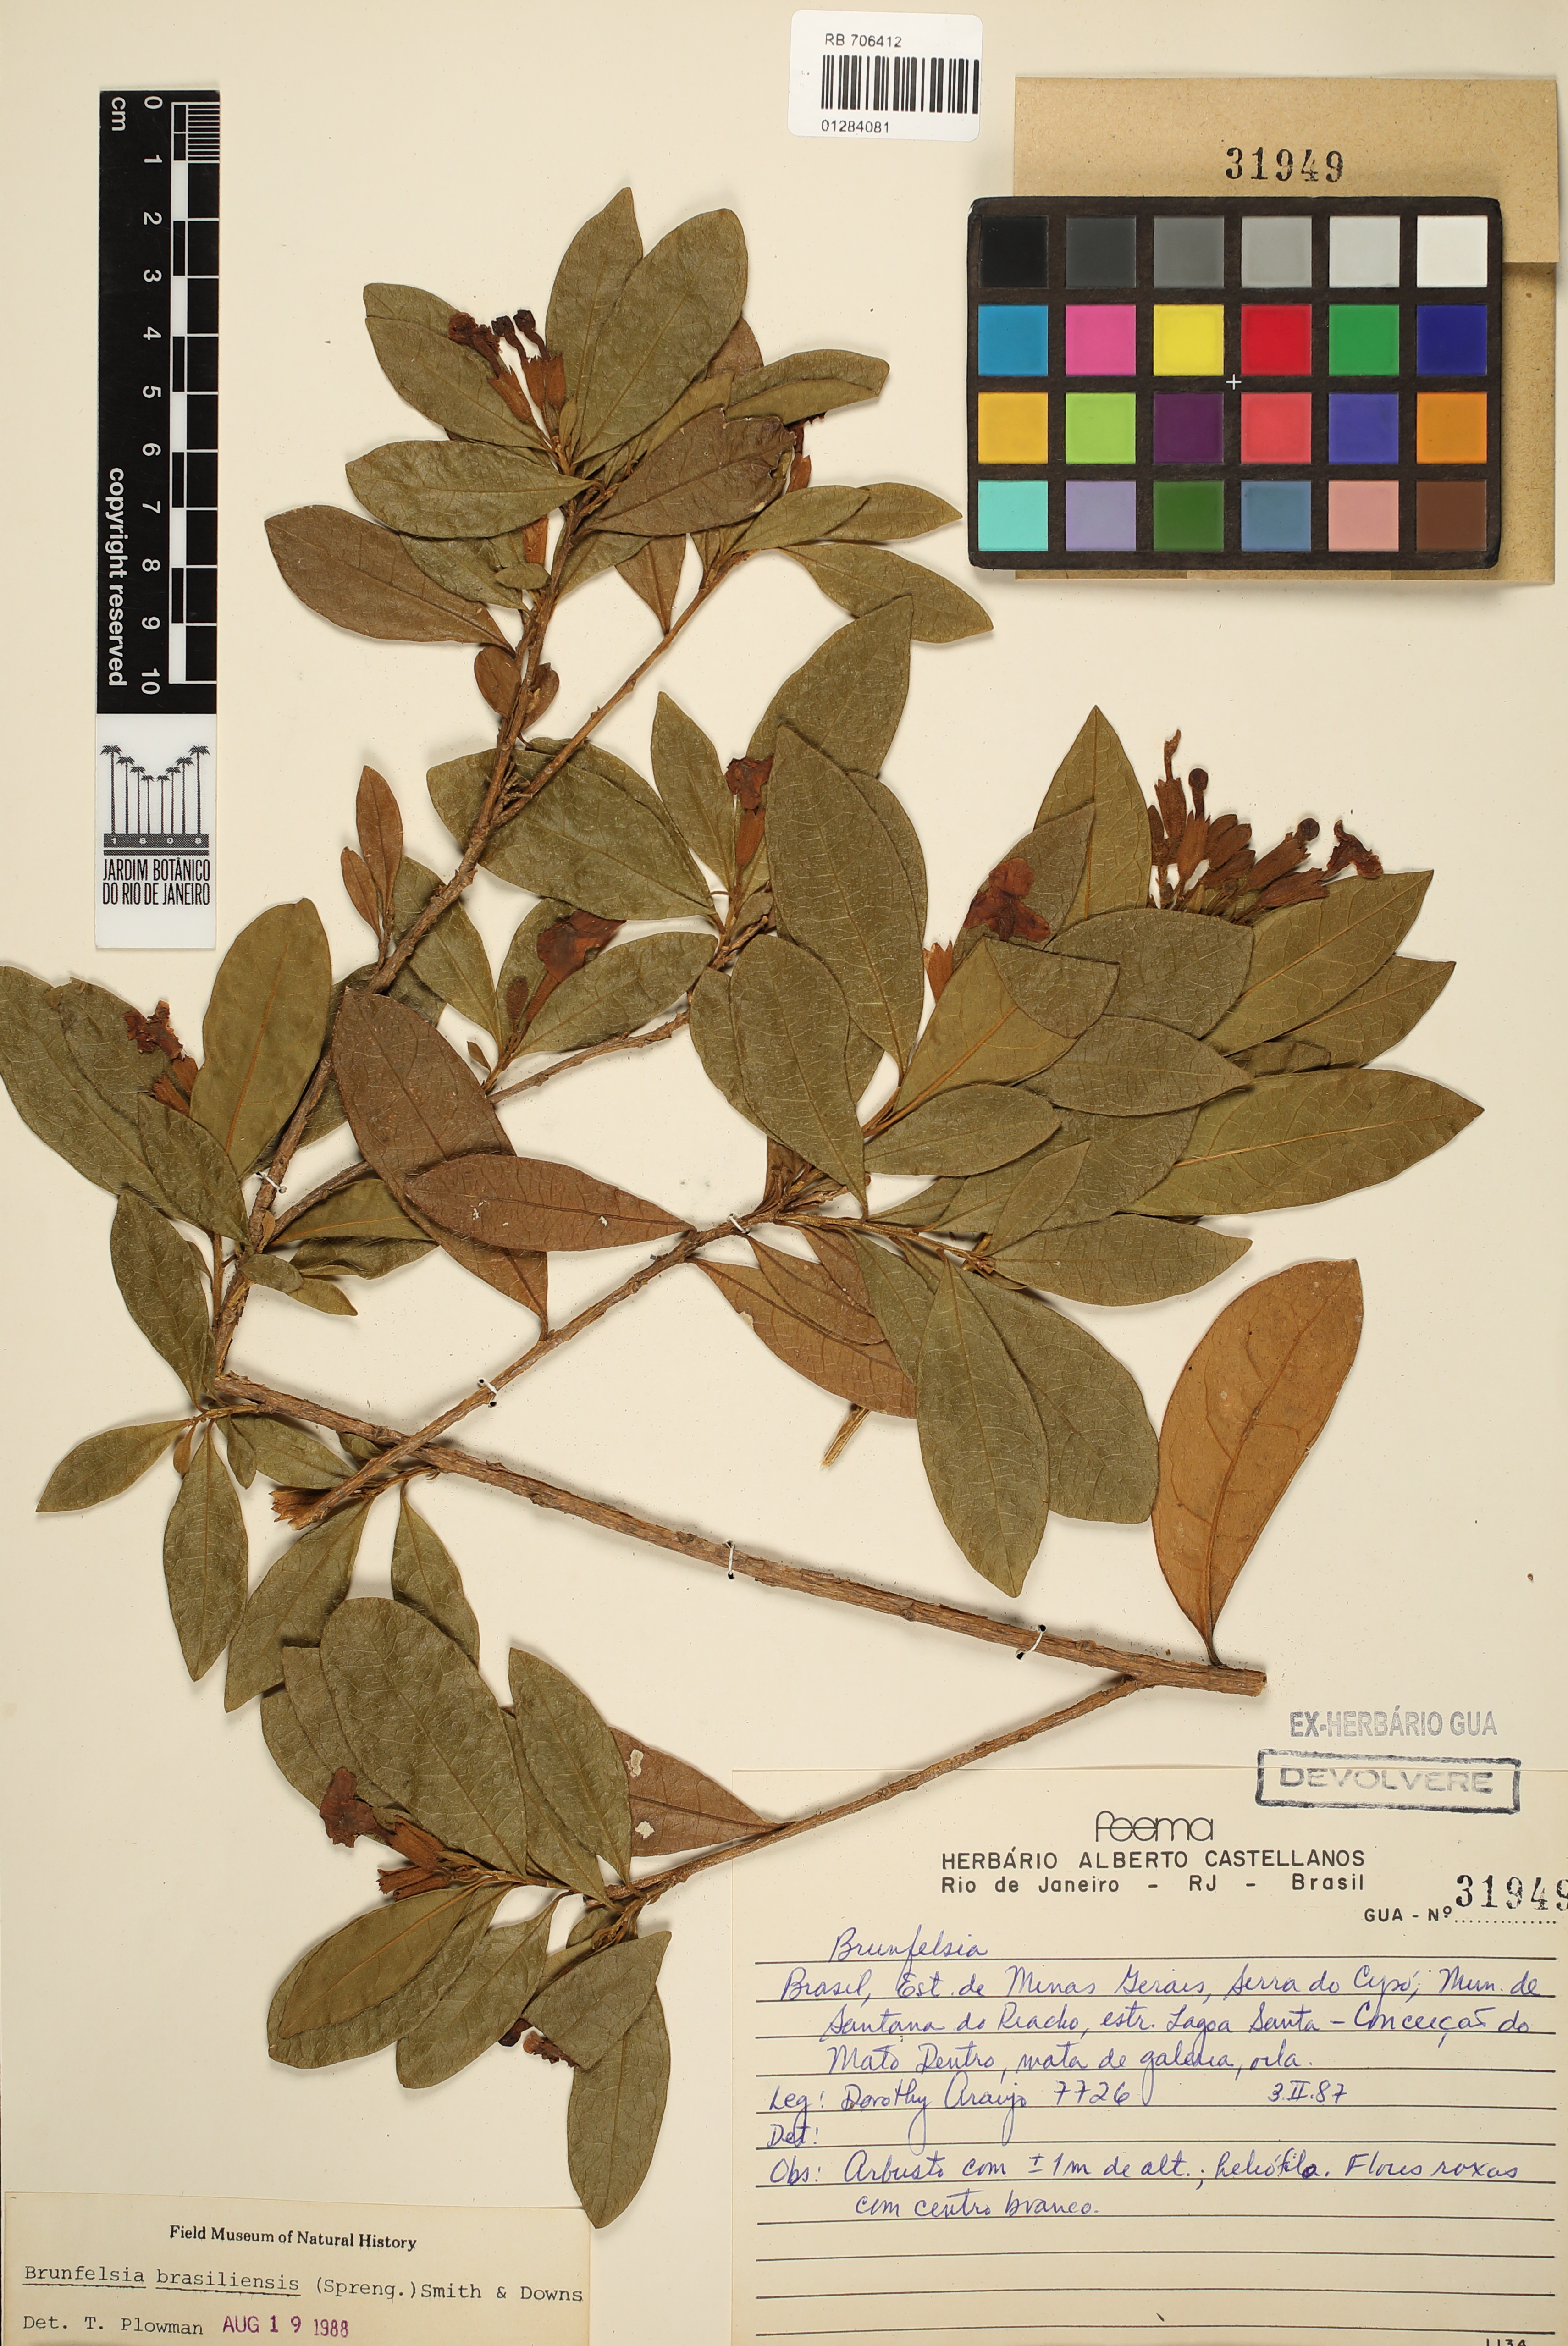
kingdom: Plantae
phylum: Tracheophyta
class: Magnoliopsida
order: Solanales
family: Solanaceae
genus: Brunfelsia
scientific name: Brunfelsia brasiliensis
